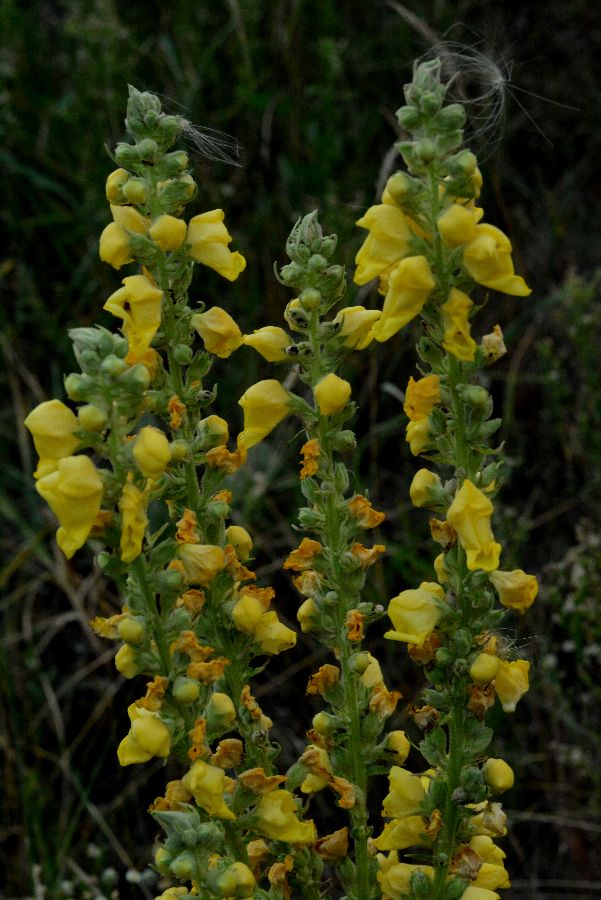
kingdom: Plantae
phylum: Tracheophyta
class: Magnoliopsida
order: Lamiales
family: Scrophulariaceae
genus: Verbascum
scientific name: Verbascum densiflorum
